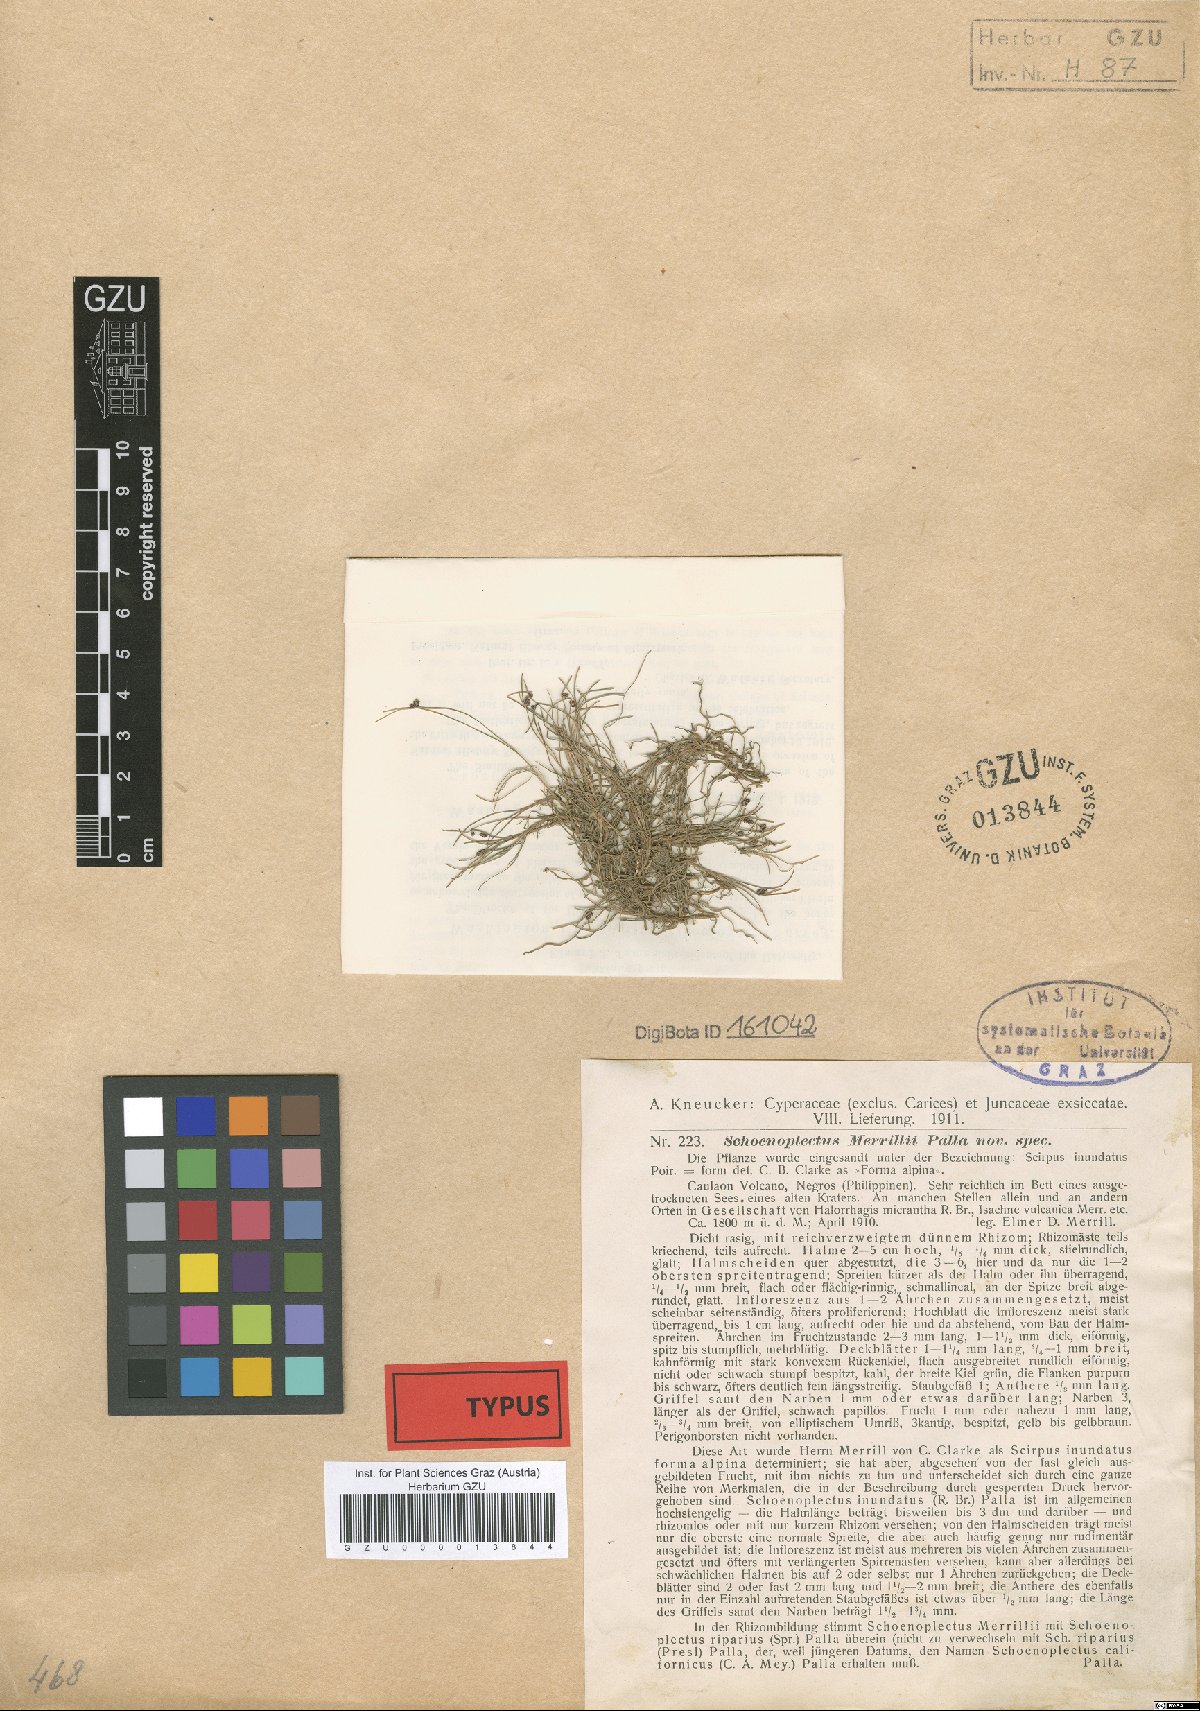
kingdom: Plantae
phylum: Tracheophyta
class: Liliopsida
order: Poales
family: Cyperaceae
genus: Isolepis
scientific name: Isolepis subtilissima
